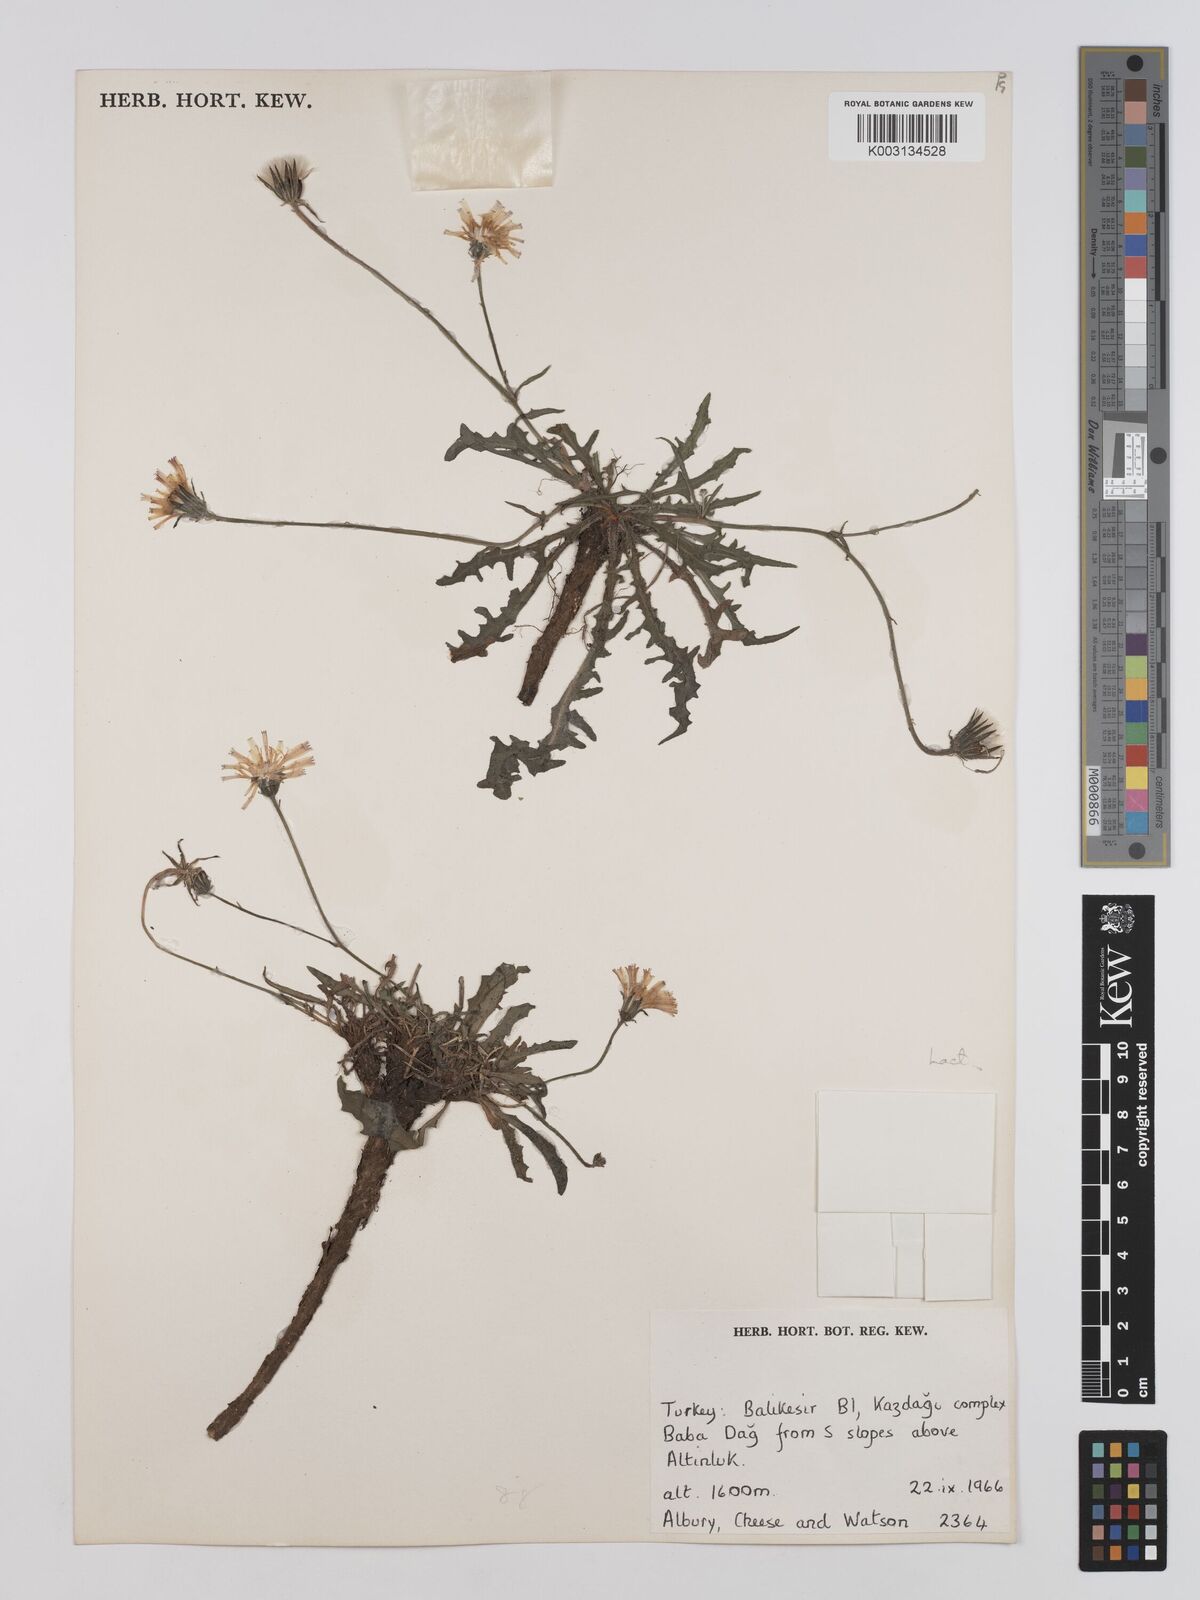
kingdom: Plantae
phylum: Tracheophyta
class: Magnoliopsida
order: Asterales
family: Asteraceae
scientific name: Asteraceae
